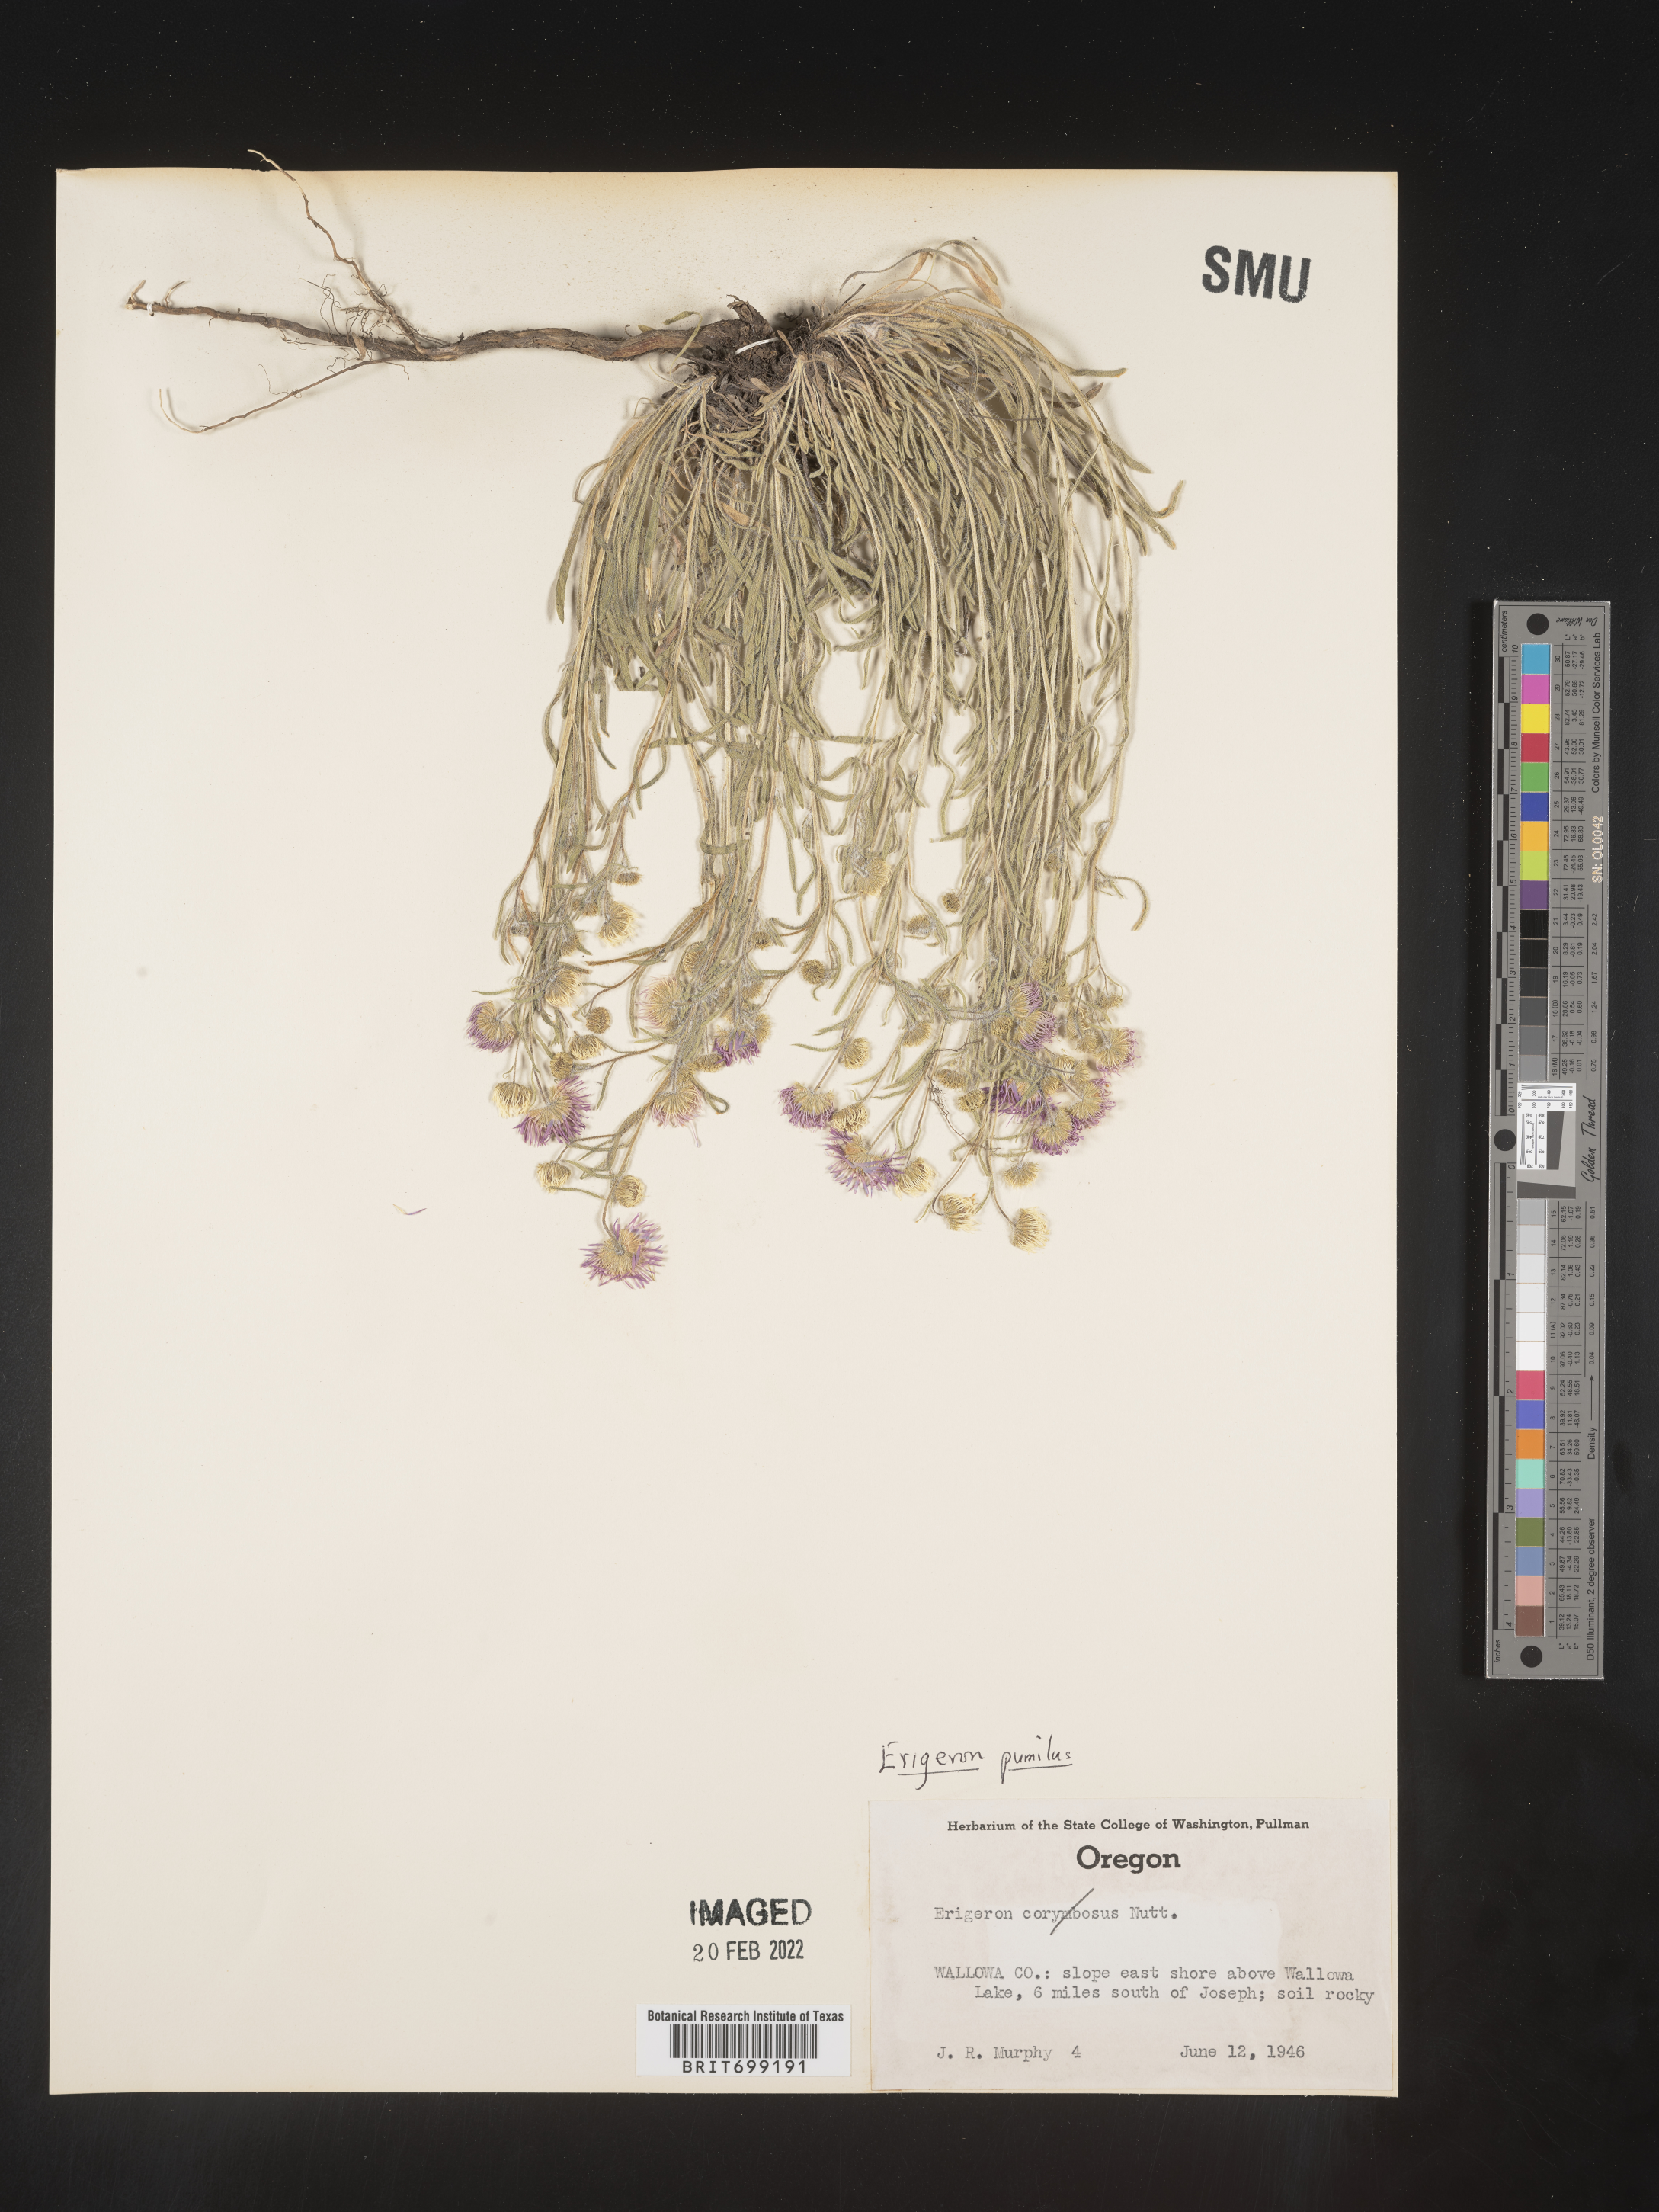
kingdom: Plantae
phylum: Tracheophyta
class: Magnoliopsida
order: Asterales
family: Asteraceae
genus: Erigeron
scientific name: Erigeron pumilus
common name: Shaggy fleabane
